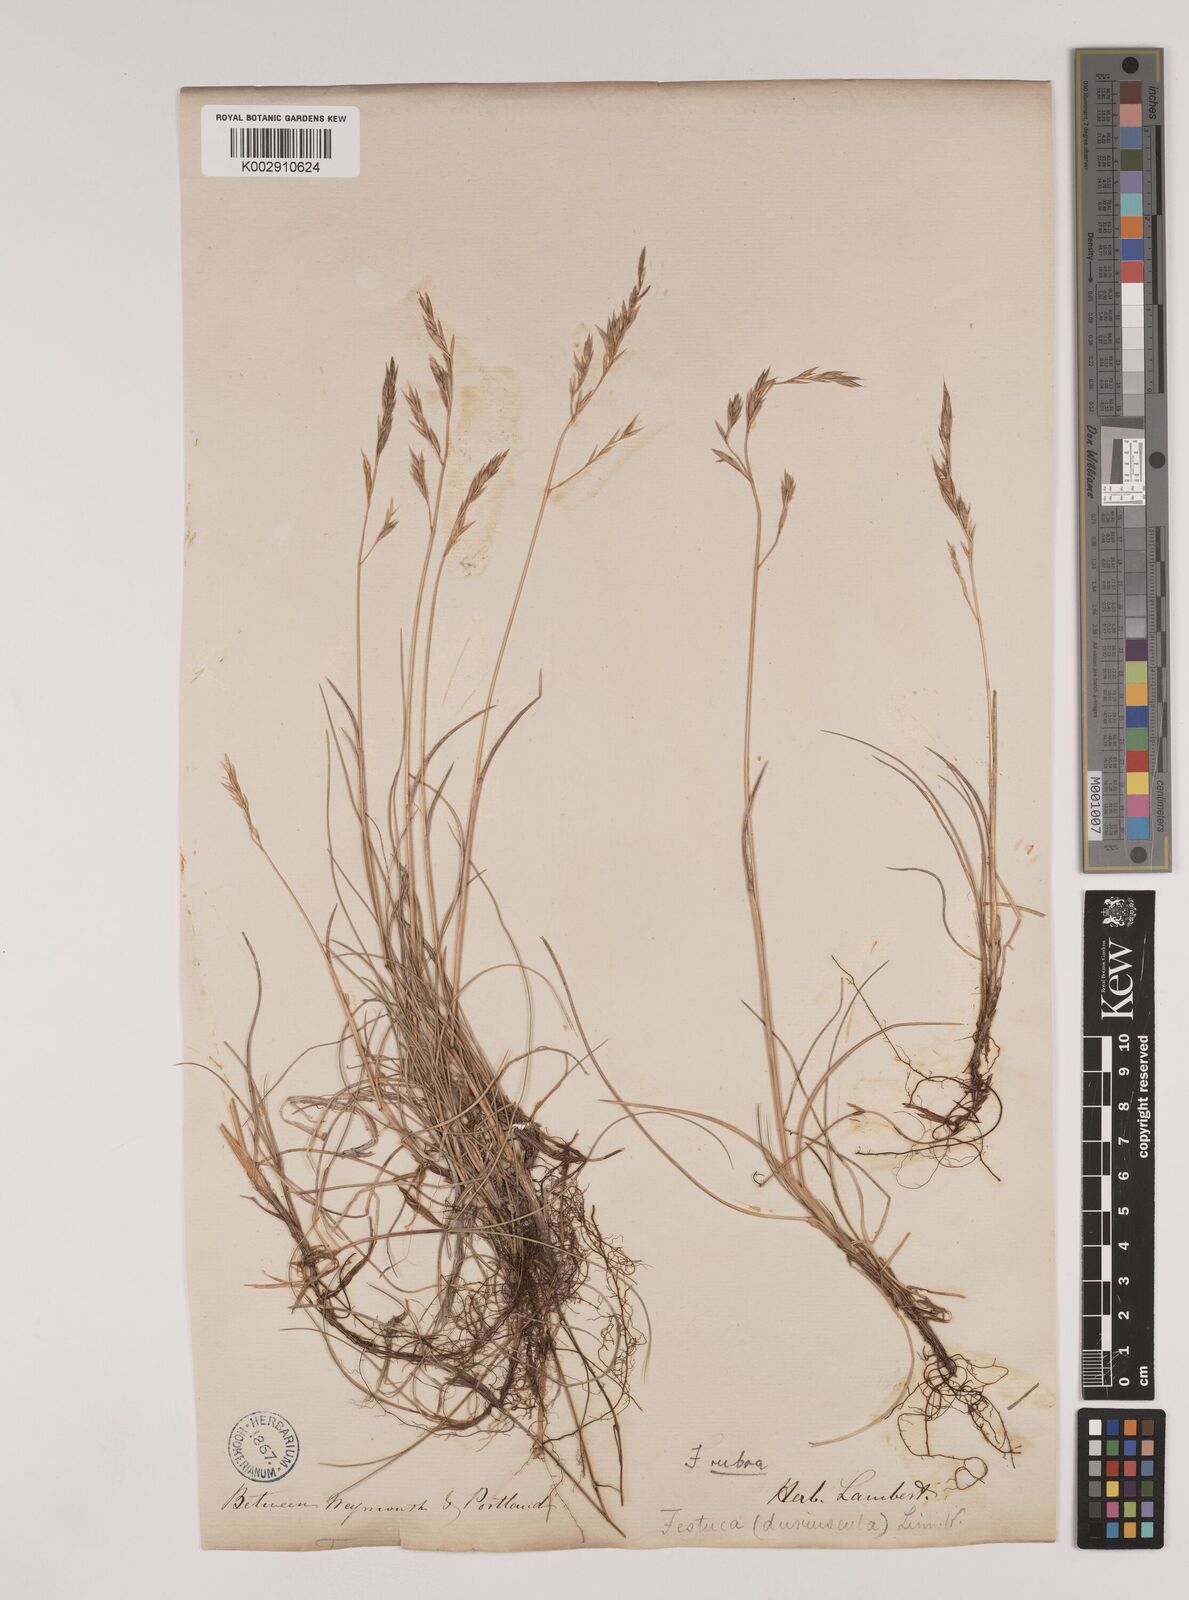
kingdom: Plantae
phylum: Tracheophyta
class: Liliopsida
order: Poales
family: Poaceae
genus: Festuca
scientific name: Festuca rubra
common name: Red fescue
